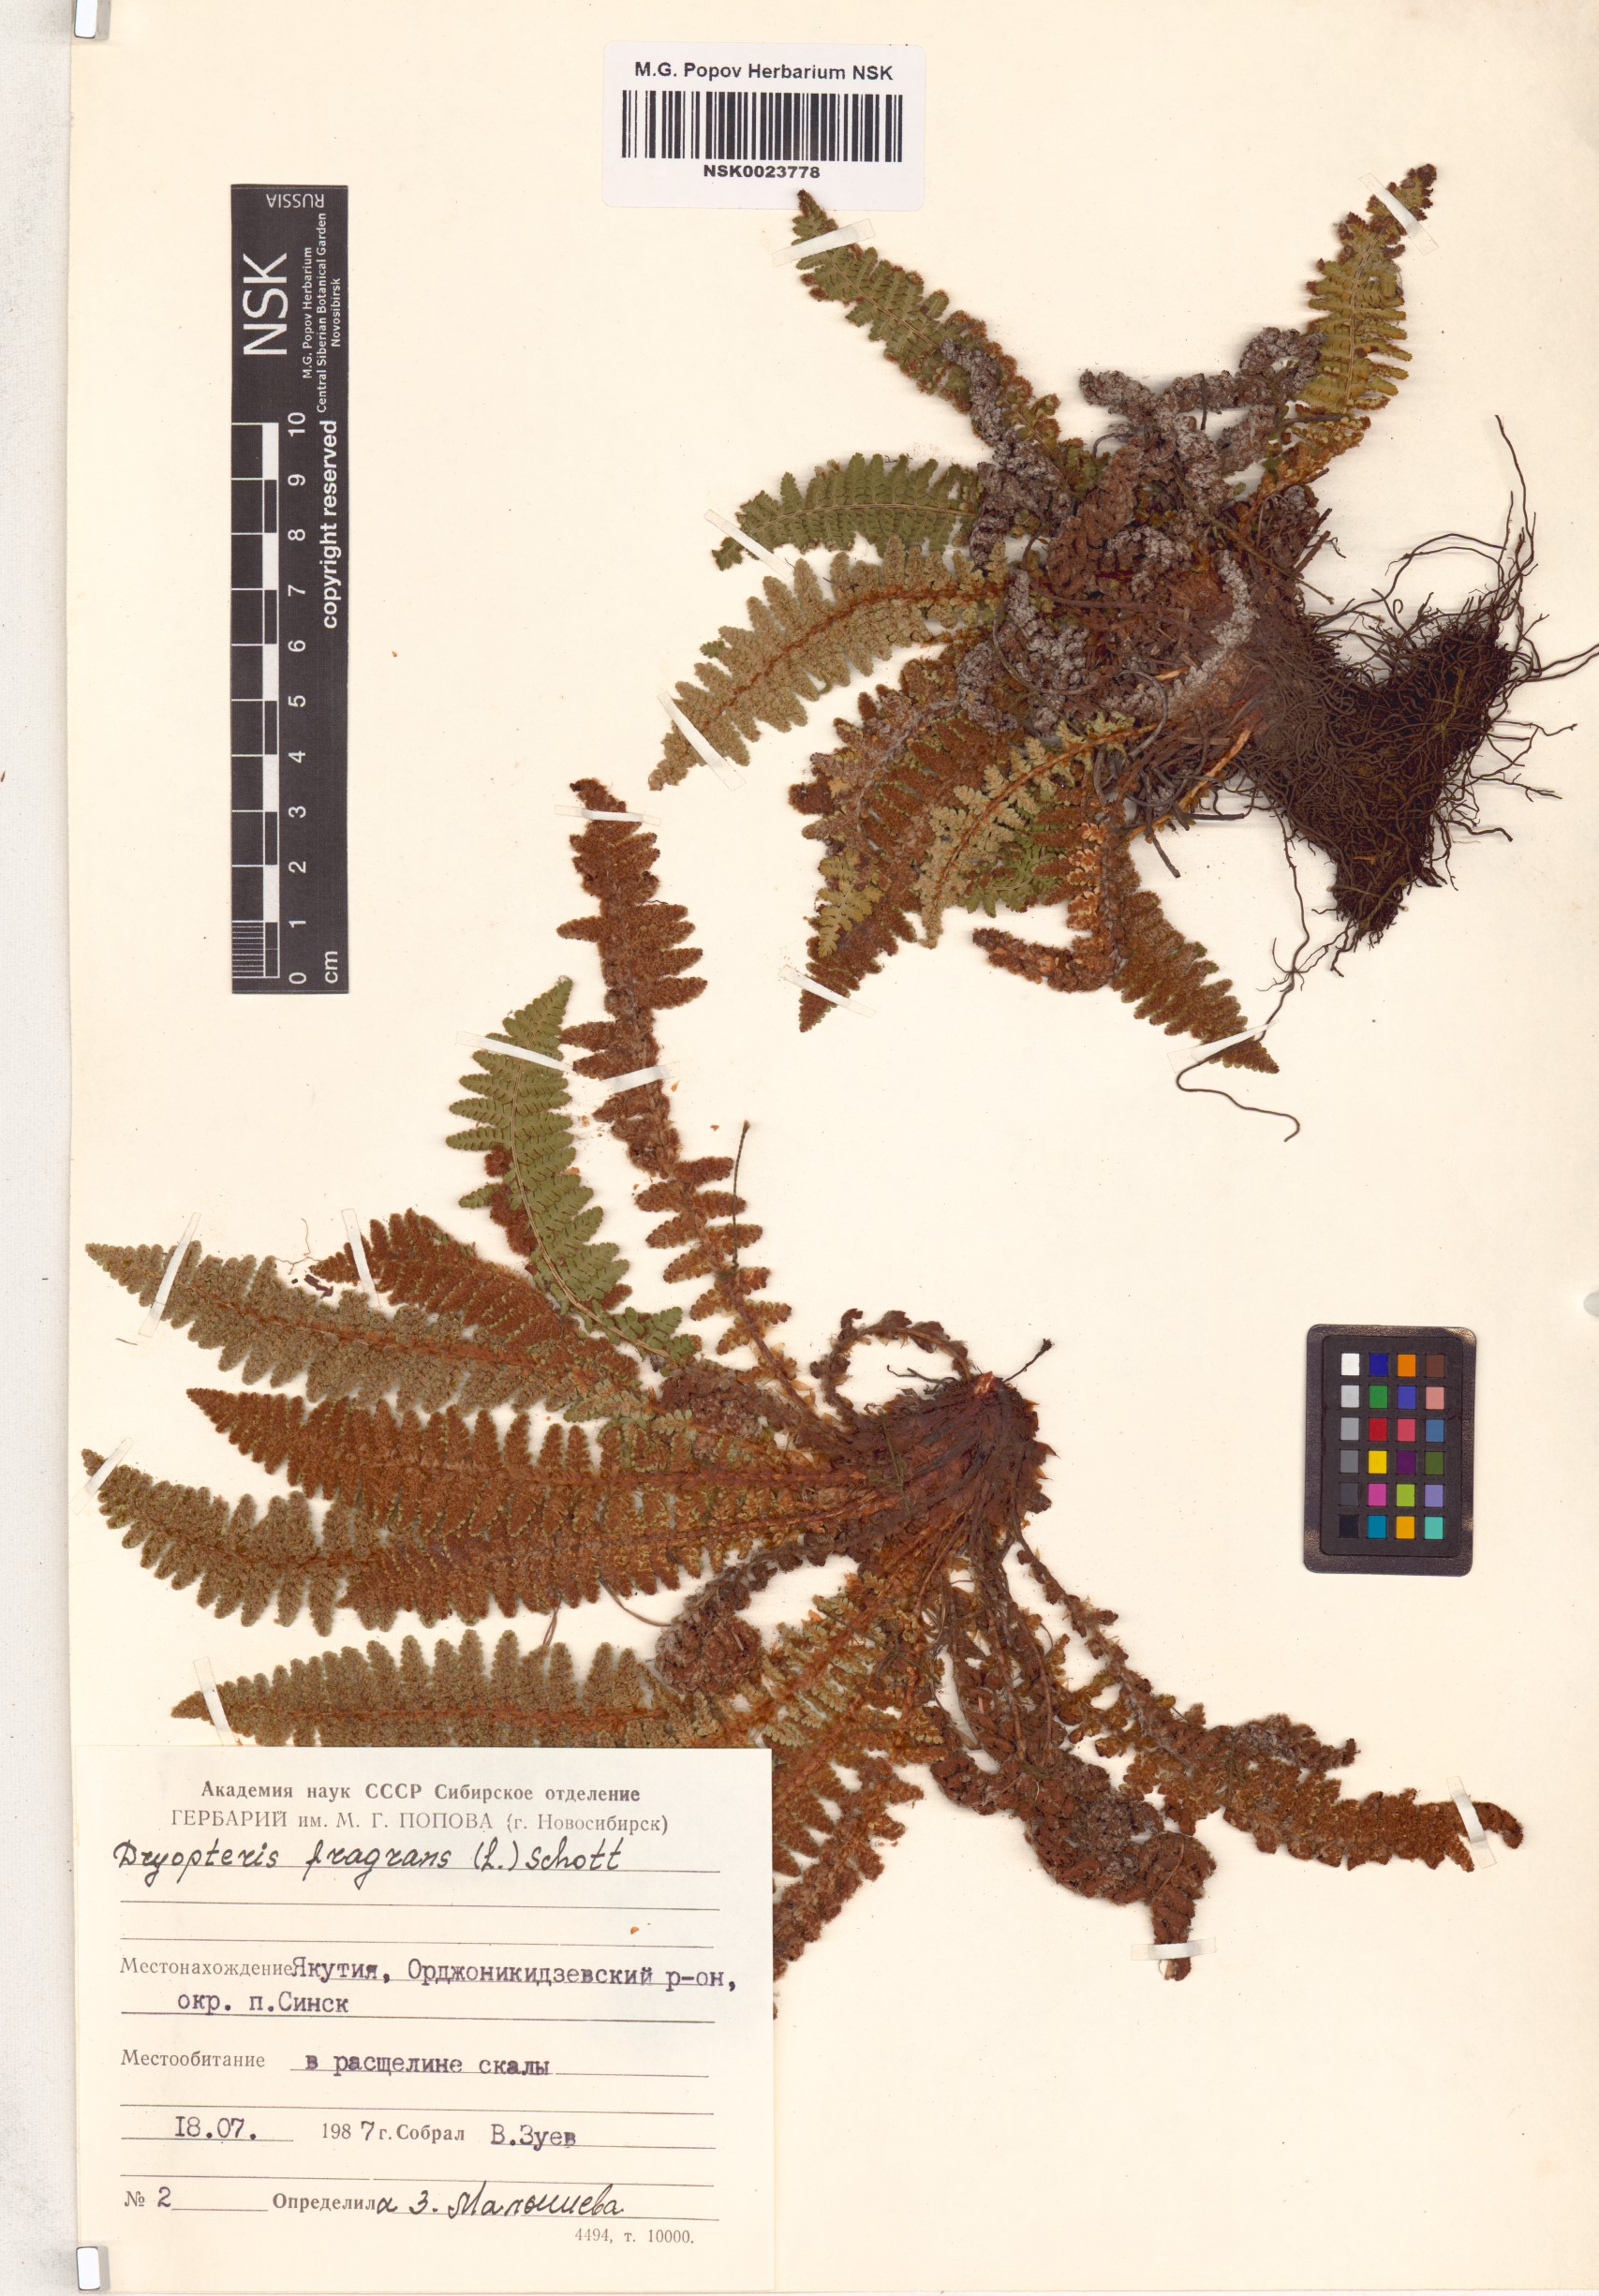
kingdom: Plantae
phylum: Tracheophyta
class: Polypodiopsida
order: Polypodiales
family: Dryopteridaceae
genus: Dryopteris
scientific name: Dryopteris fragrans
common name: Fragrant wood fern
